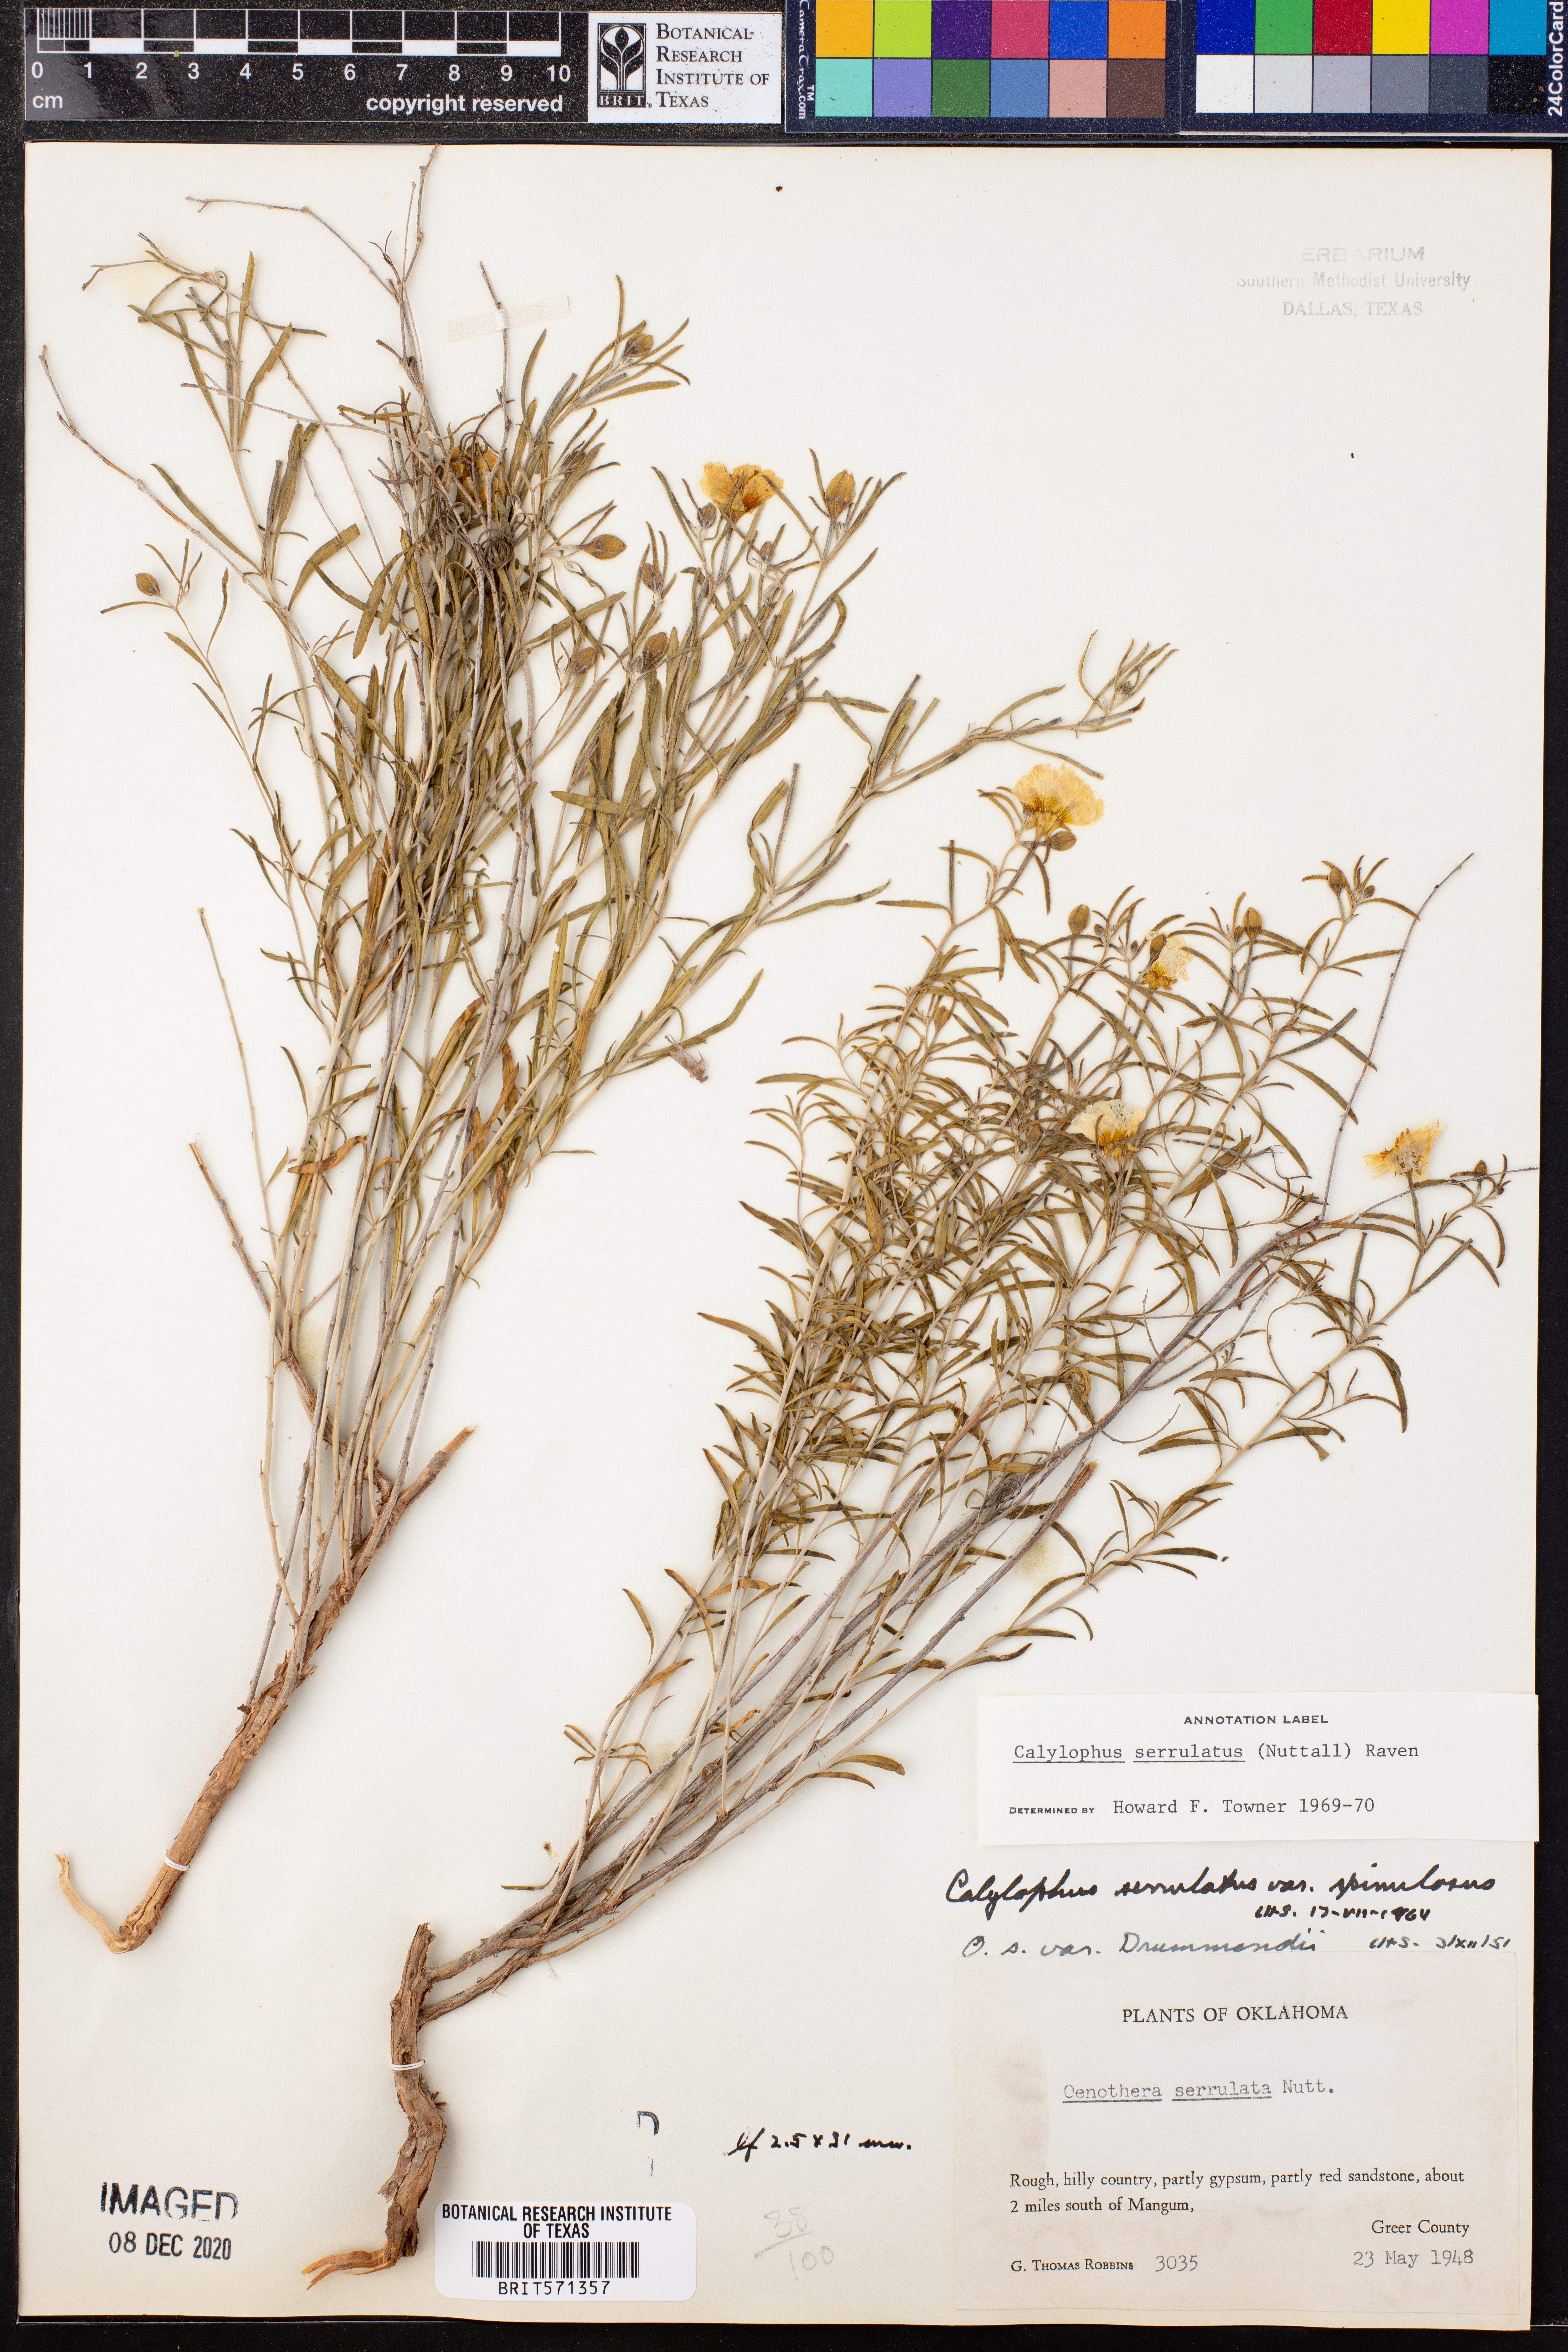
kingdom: Plantae
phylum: Tracheophyta
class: Magnoliopsida
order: Myrtales
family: Onagraceae
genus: Oenothera
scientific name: Oenothera serrulata
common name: Half-shrub calylophus
